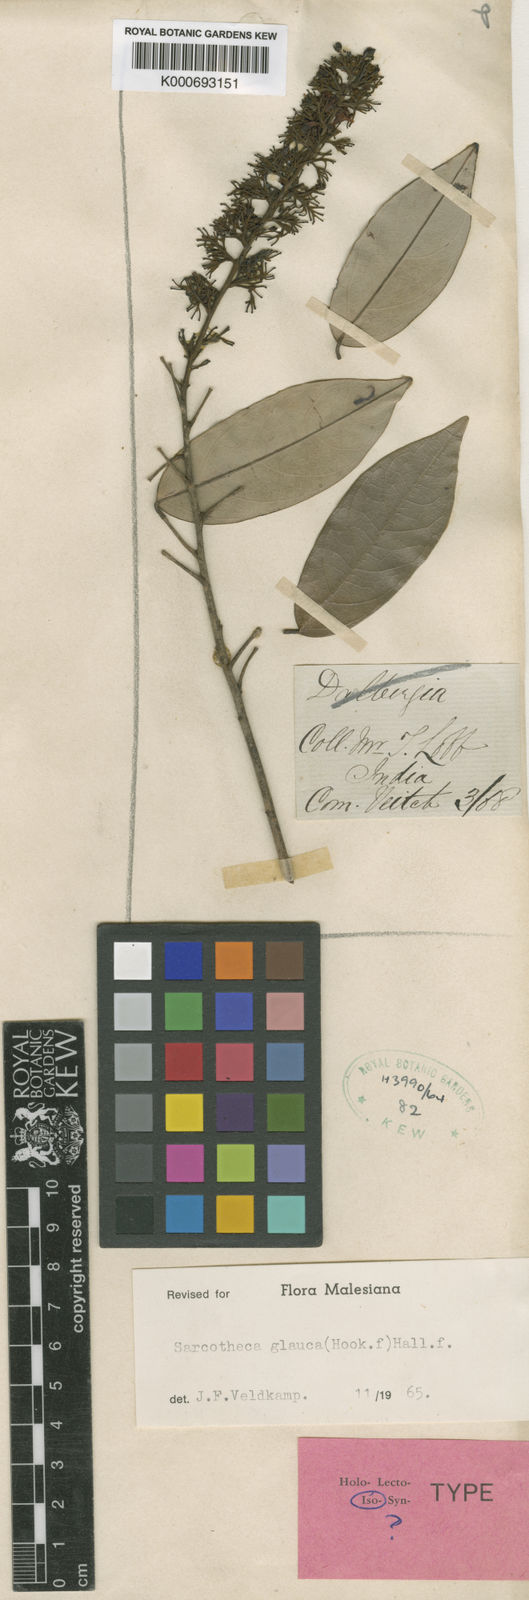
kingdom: Plantae
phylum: Tracheophyta
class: Magnoliopsida
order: Oxalidales
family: Oxalidaceae
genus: Sarcotheca
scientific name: Sarcotheca glauca
